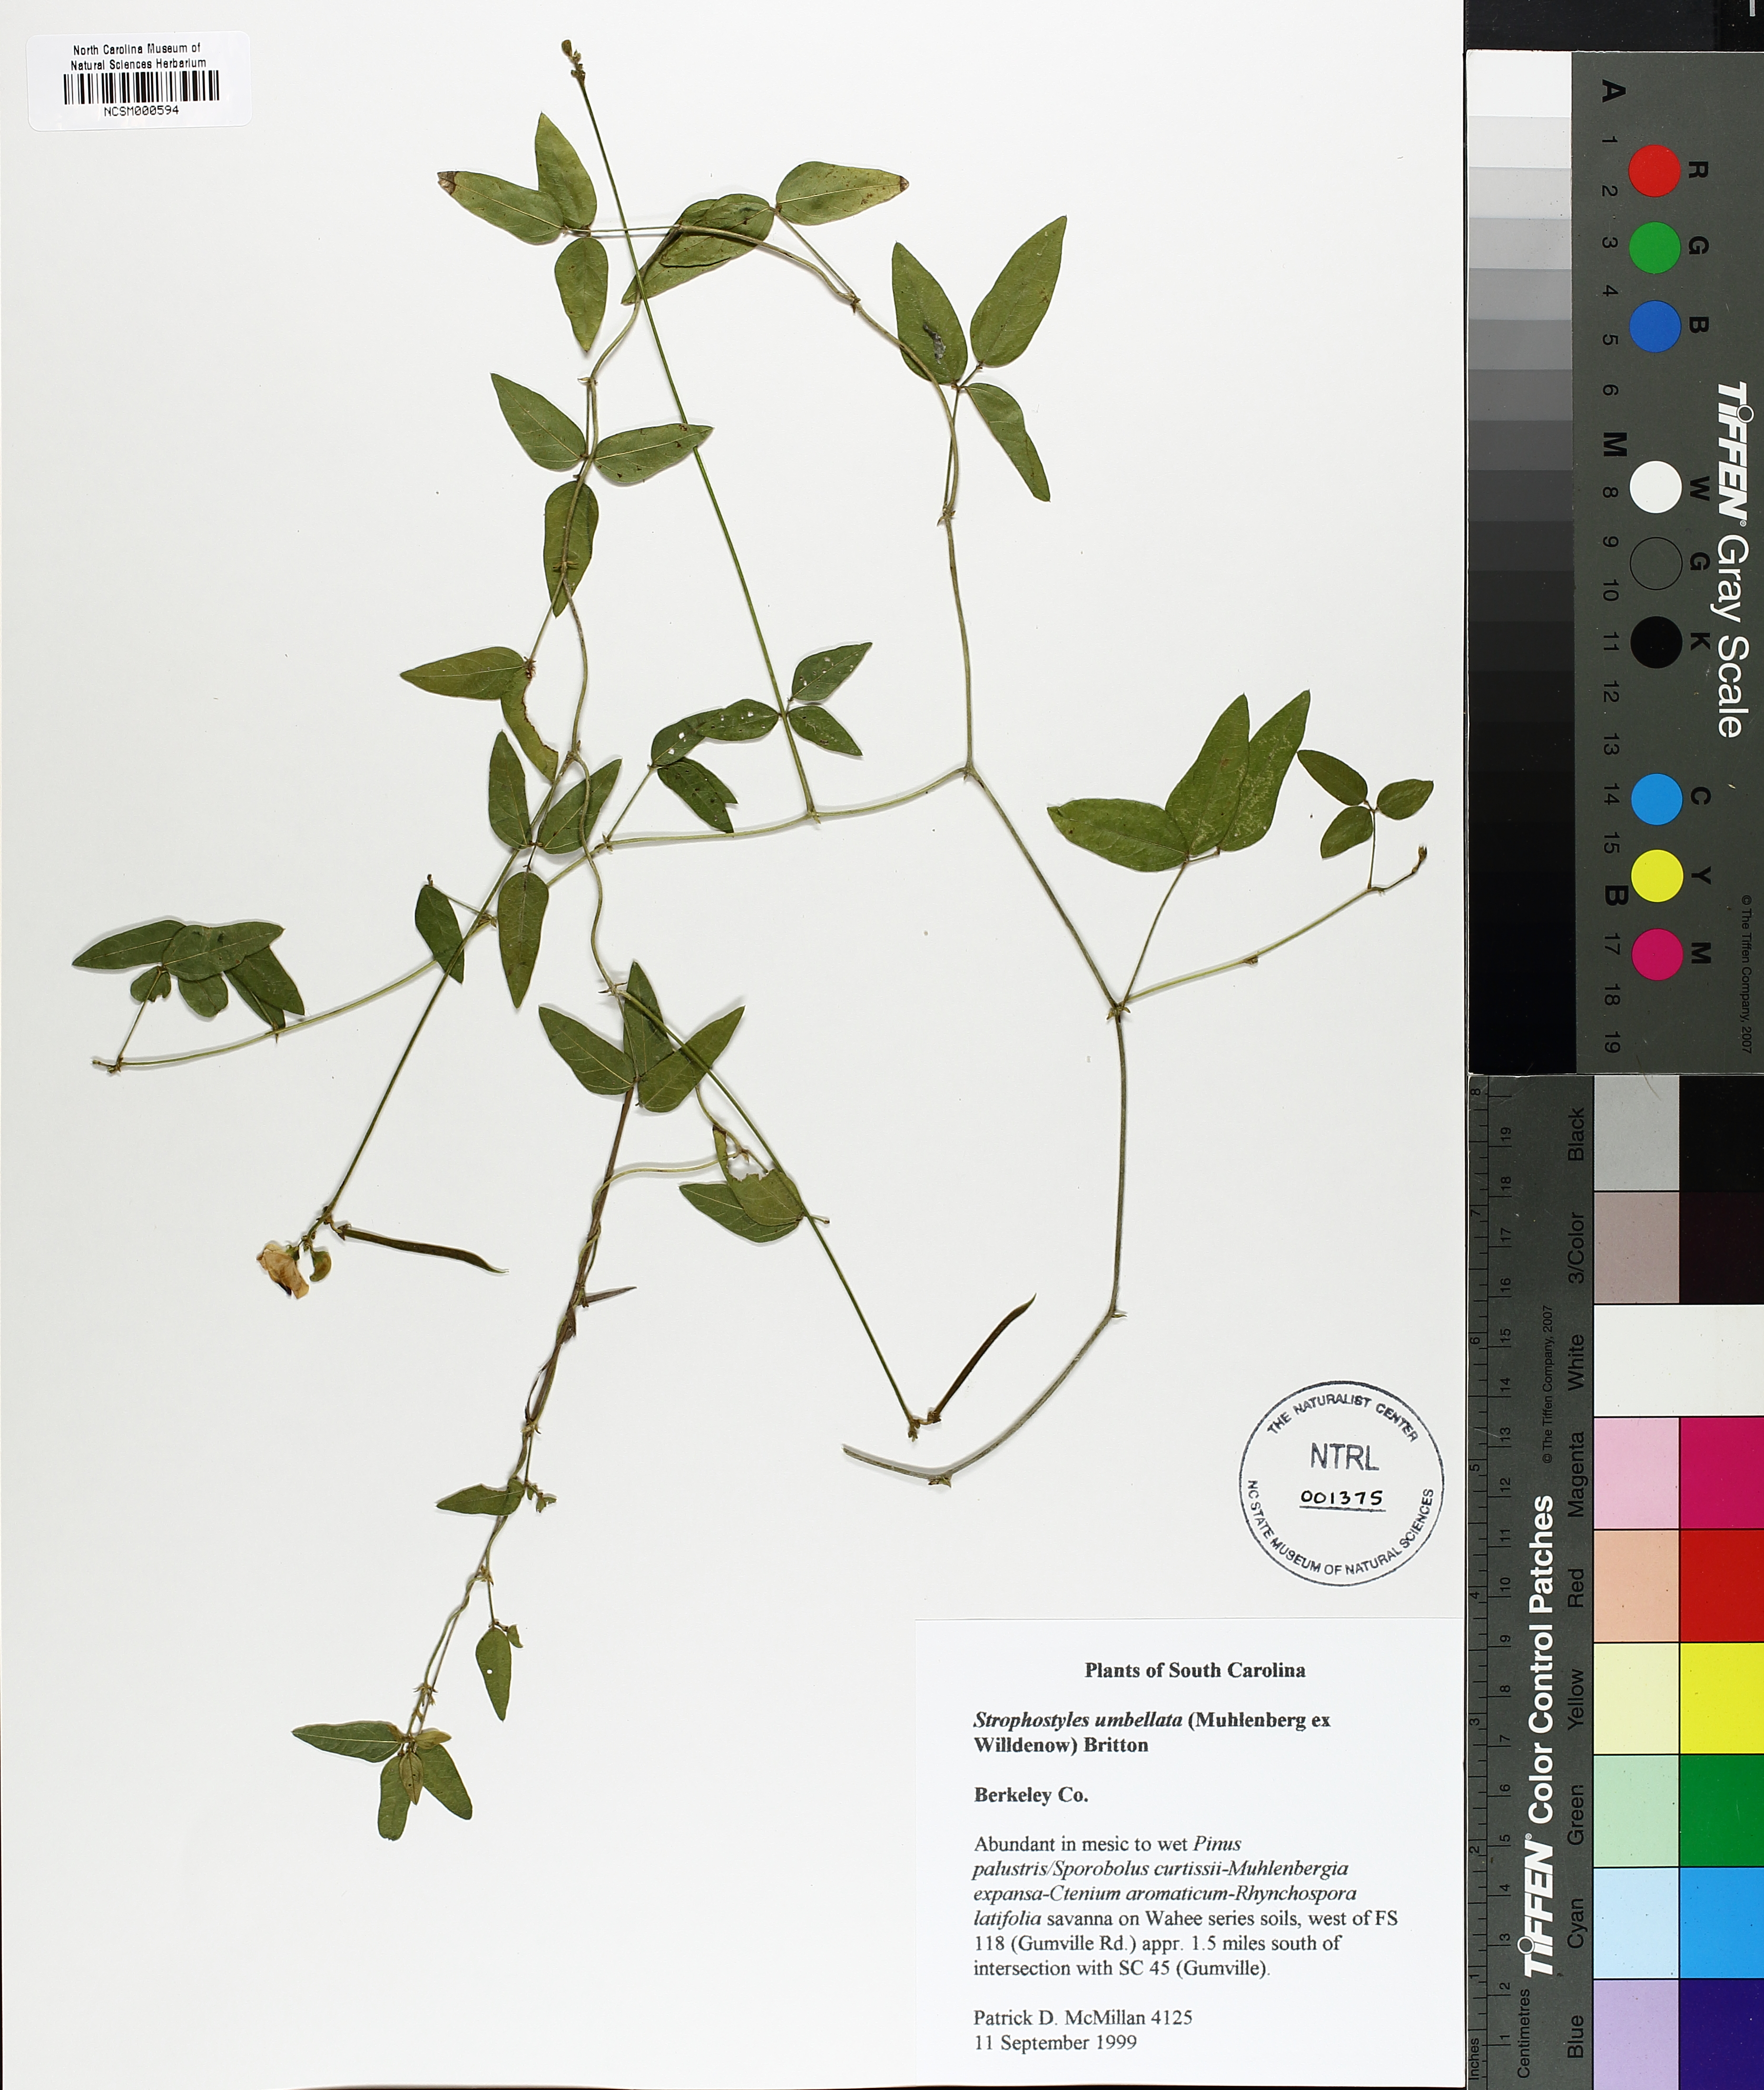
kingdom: Plantae
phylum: Tracheophyta
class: Magnoliopsida
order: Fabales
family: Fabaceae
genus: Strophostyles
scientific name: Strophostyles umbellata
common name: Perennial wild bean
